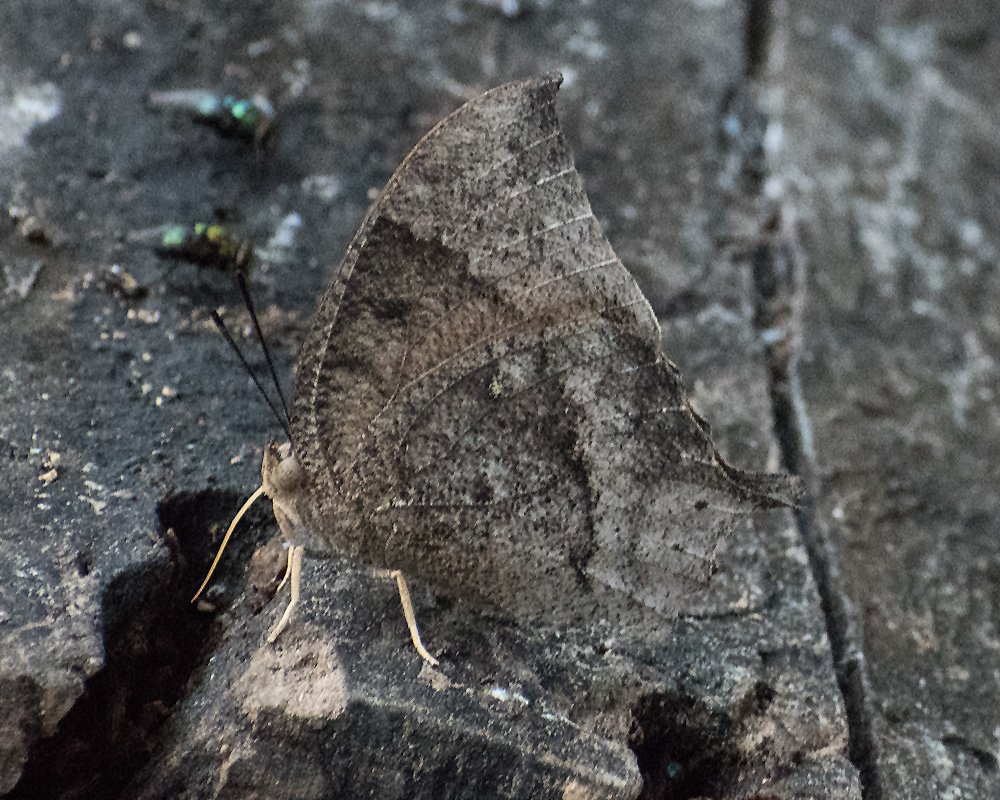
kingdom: Animalia
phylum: Arthropoda
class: Insecta
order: Lepidoptera
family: Nymphalidae
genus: Anaea
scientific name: Anaea aidea
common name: Tropical Leafwing
